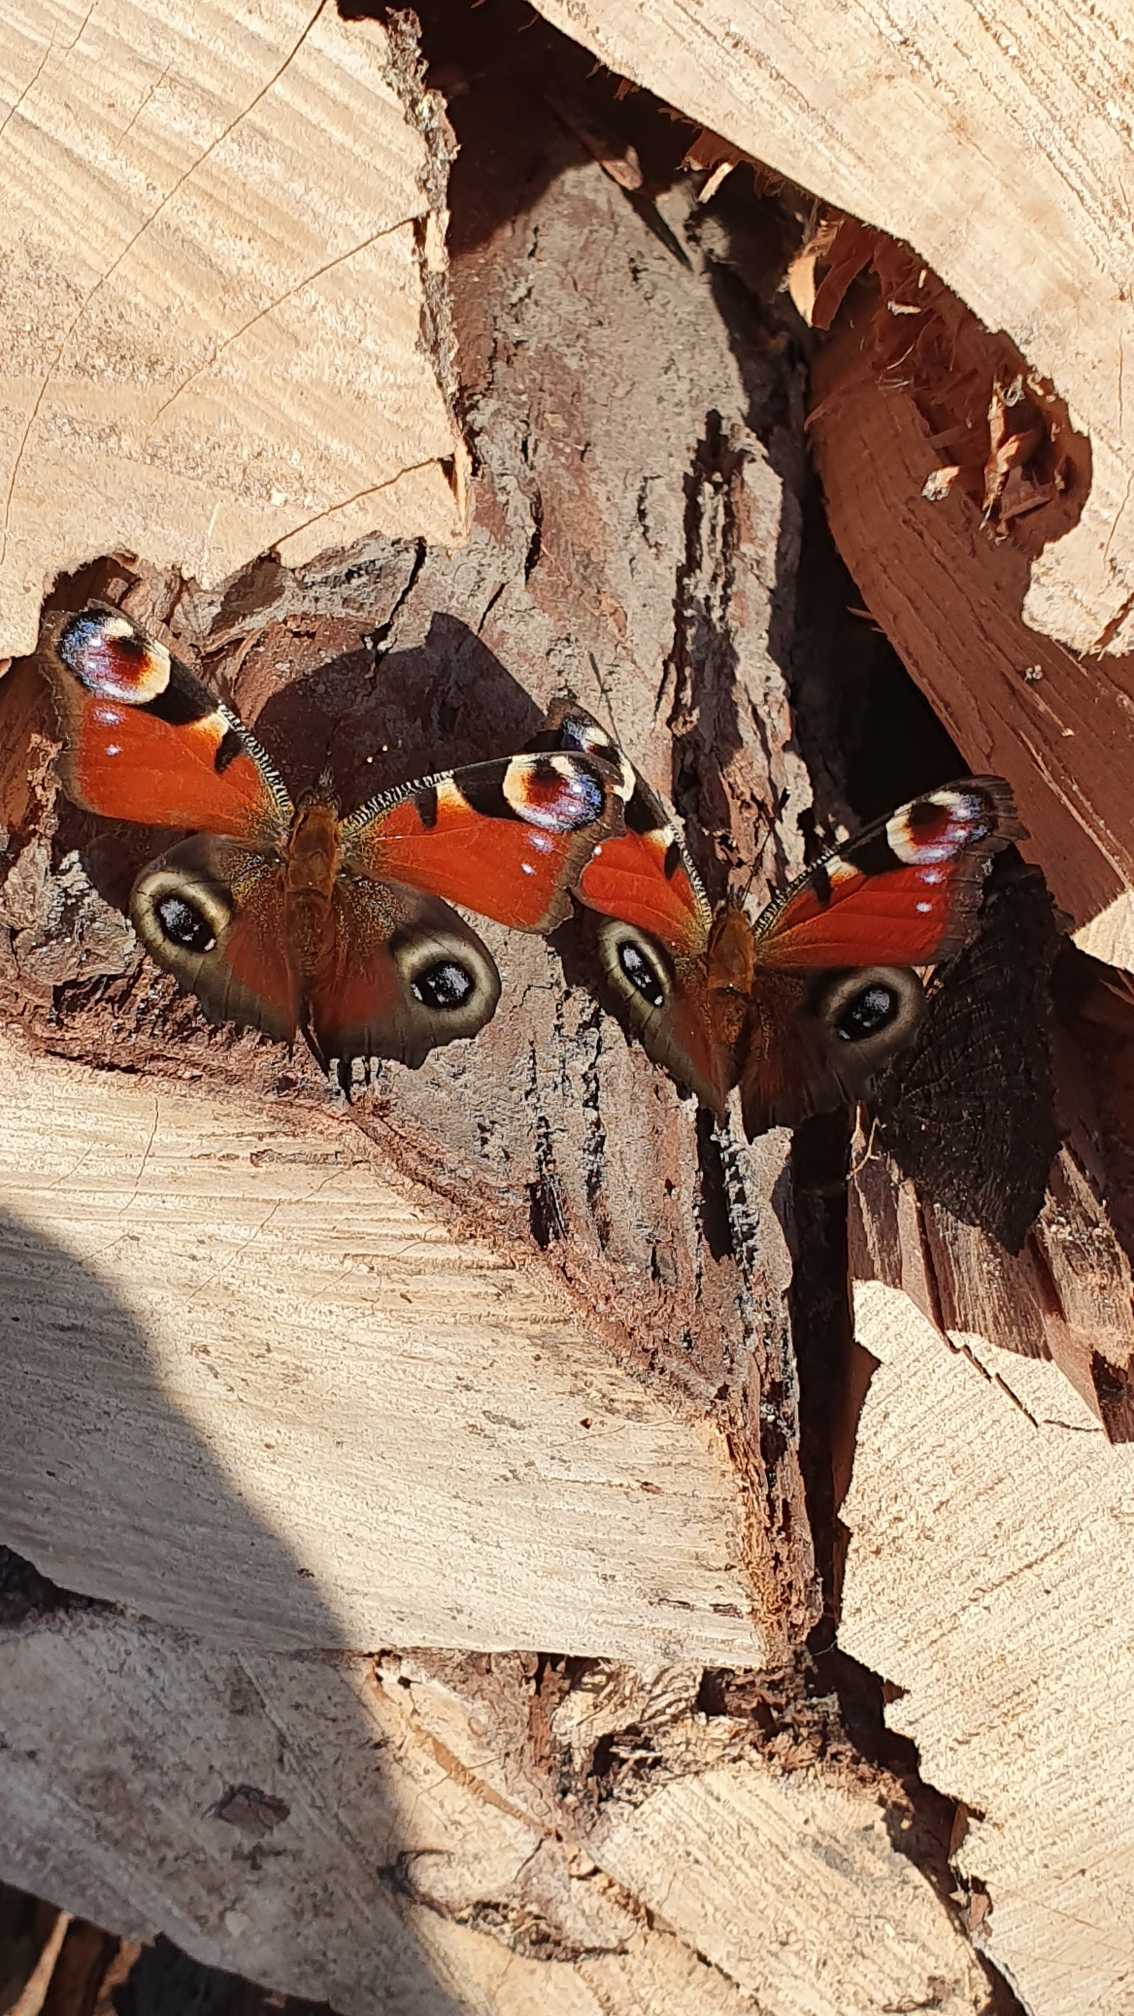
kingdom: Animalia
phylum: Arthropoda
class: Insecta
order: Lepidoptera
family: Nymphalidae
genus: Aglais
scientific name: Aglais io
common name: Dagpåfugleøje
